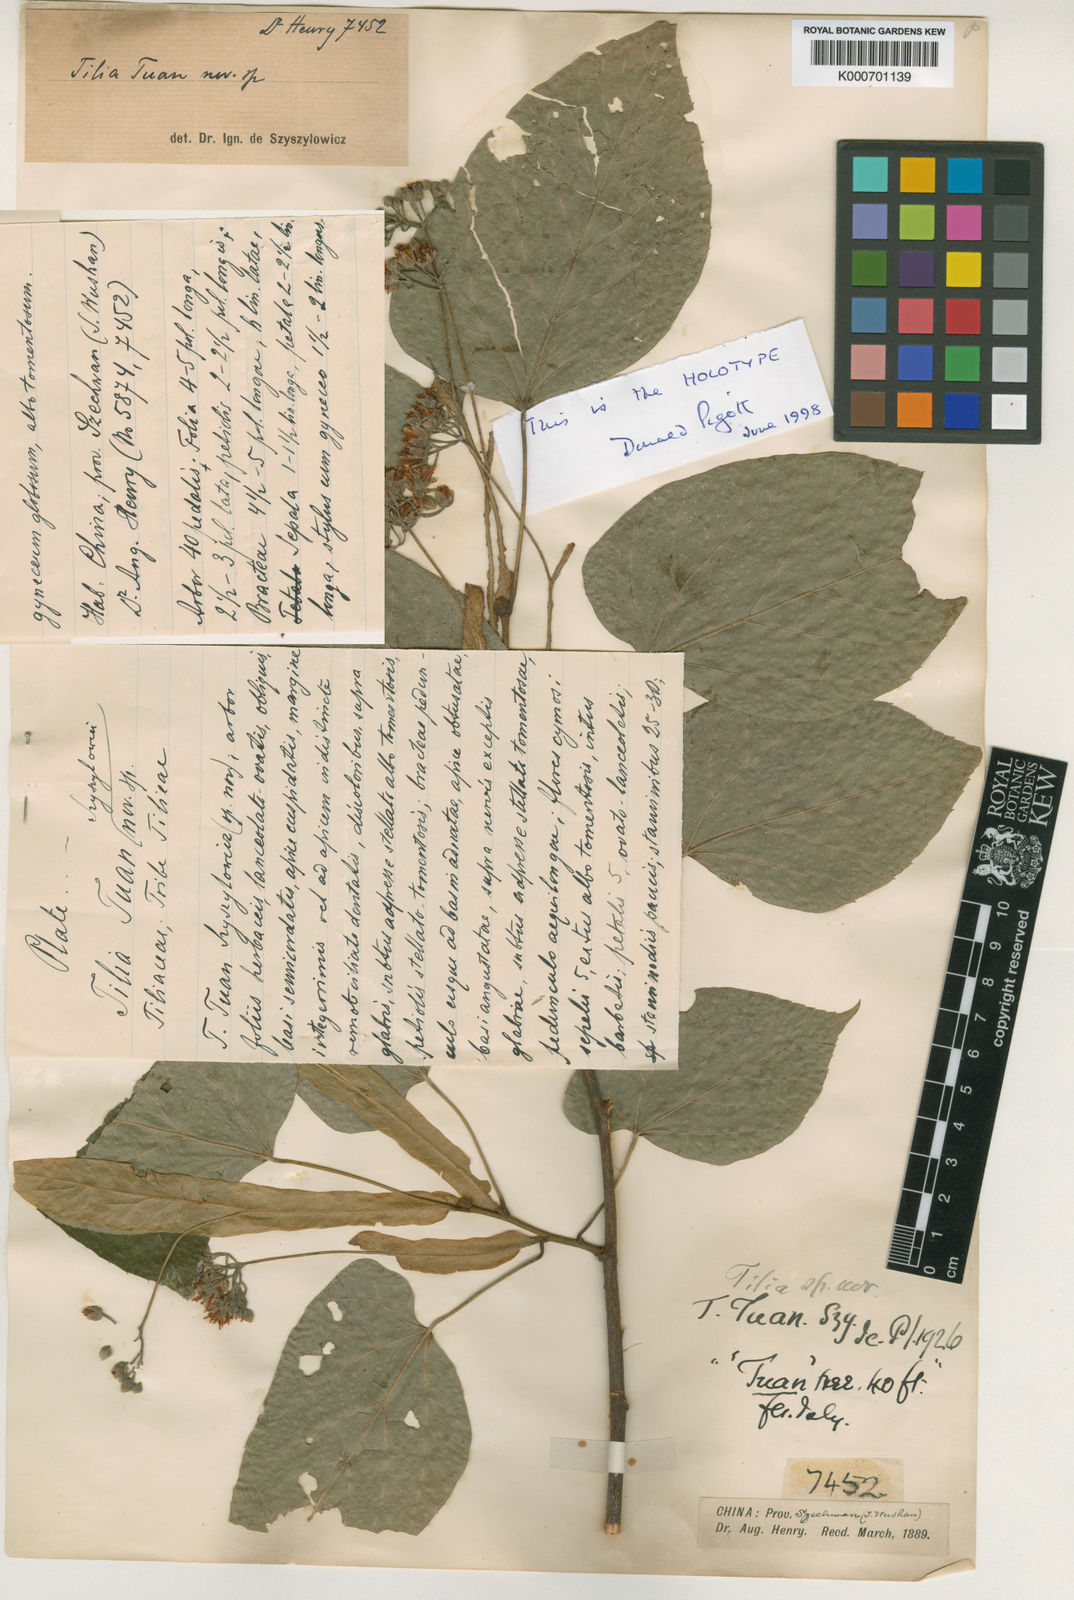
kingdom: Plantae
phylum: Tracheophyta
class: Magnoliopsida
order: Malvales
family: Malvaceae
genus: Tilia
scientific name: Tilia tuan
